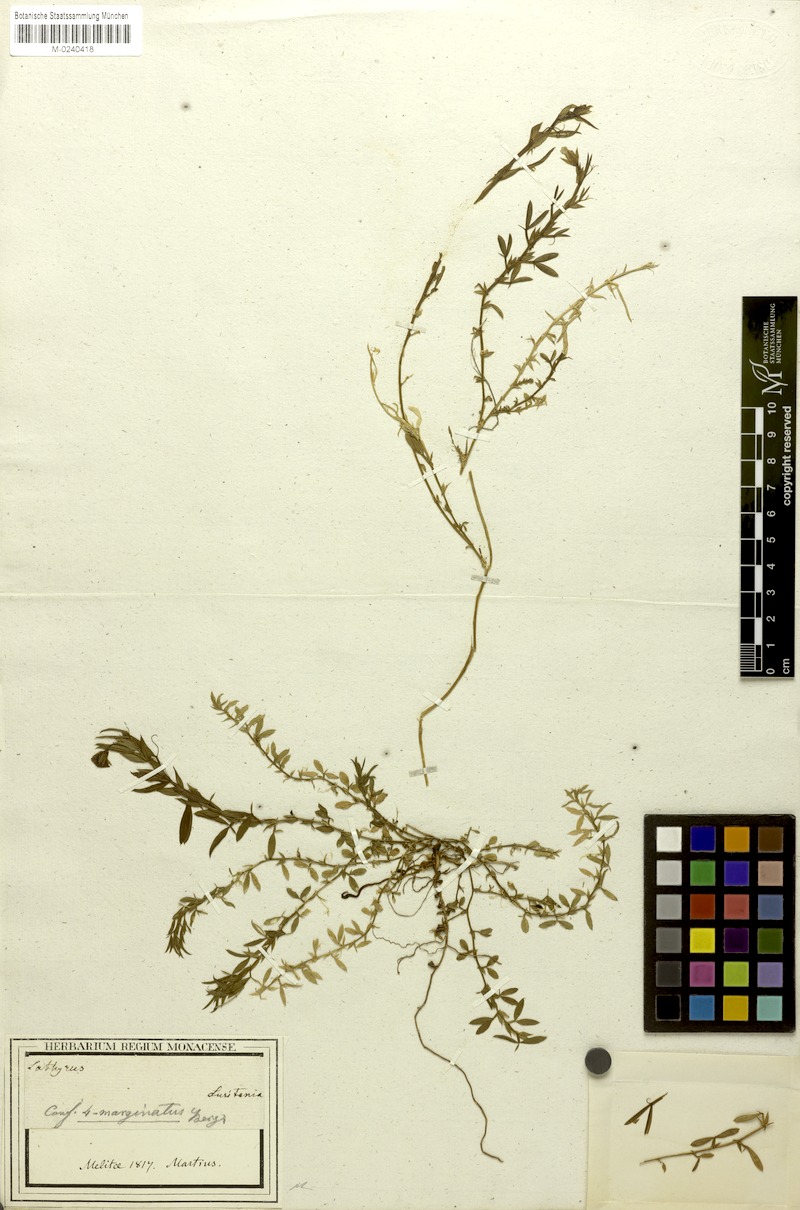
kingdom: Plantae
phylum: Tracheophyta
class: Magnoliopsida
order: Fabales
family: Fabaceae
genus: Lathyrus
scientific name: Lathyrus amphicarpos
